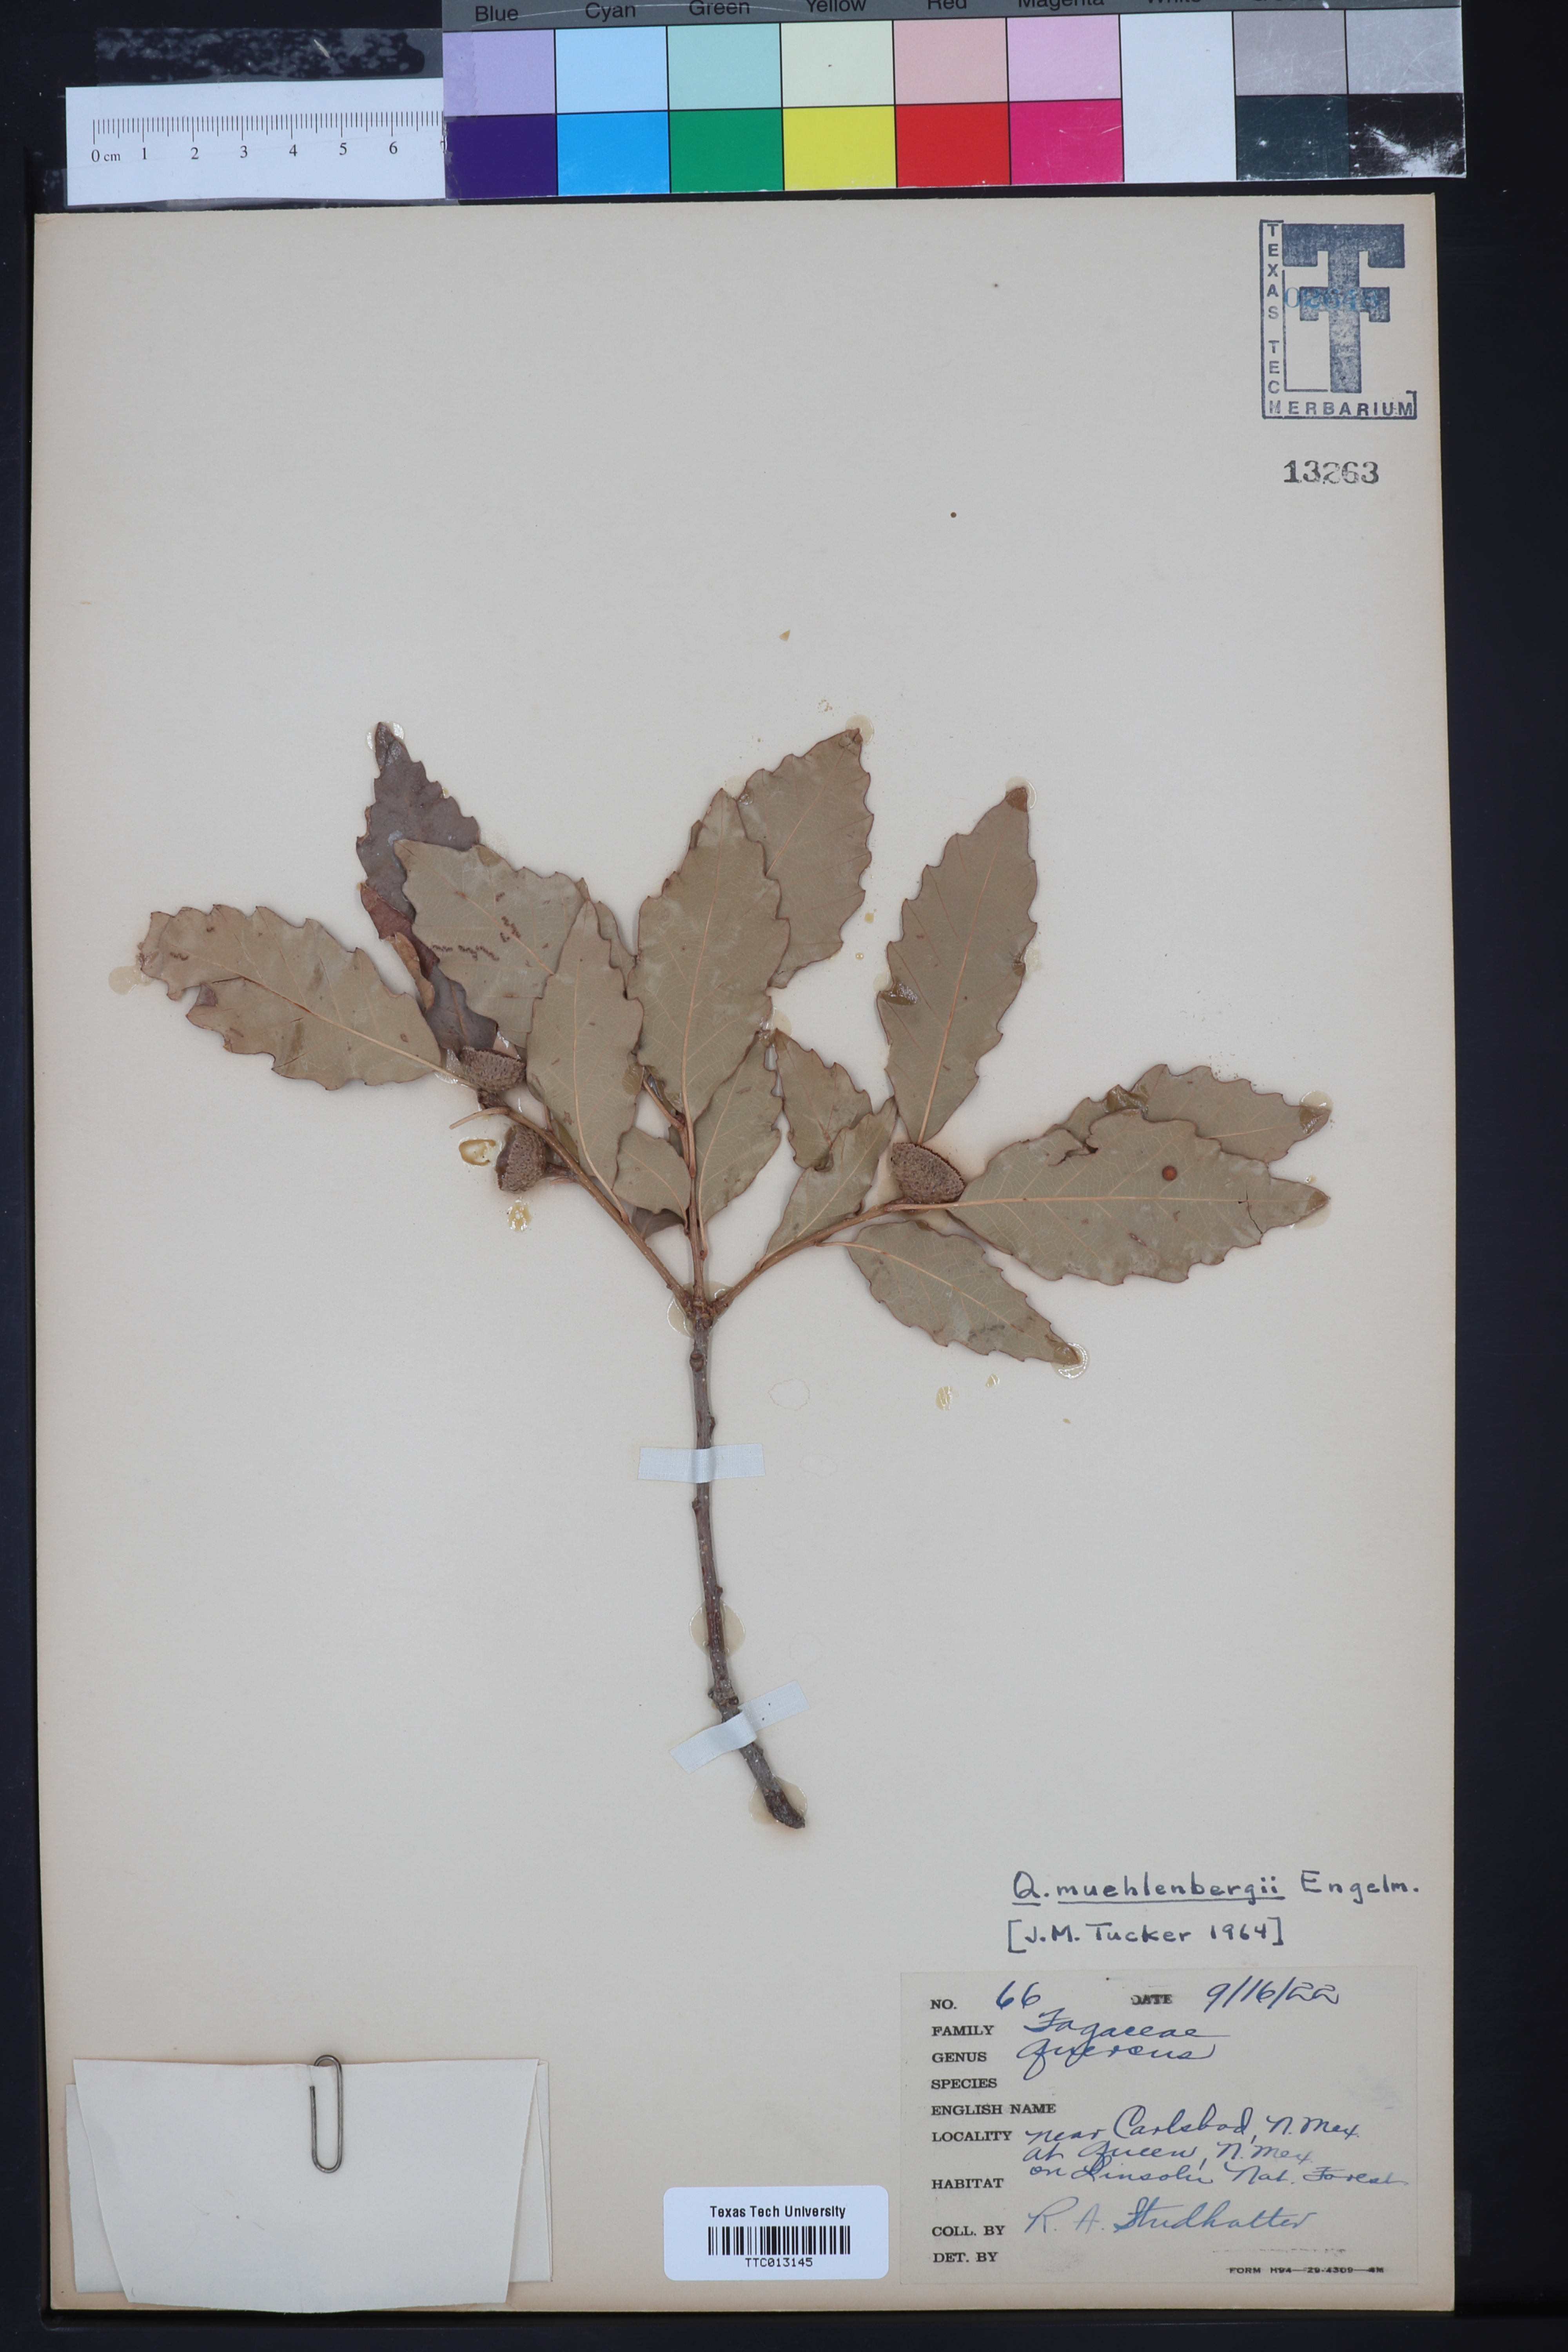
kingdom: Plantae
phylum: Tracheophyta
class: Magnoliopsida
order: Fagales
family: Fagaceae
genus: Quercus
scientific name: Quercus muehlenbergii
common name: Chinkapin oak
